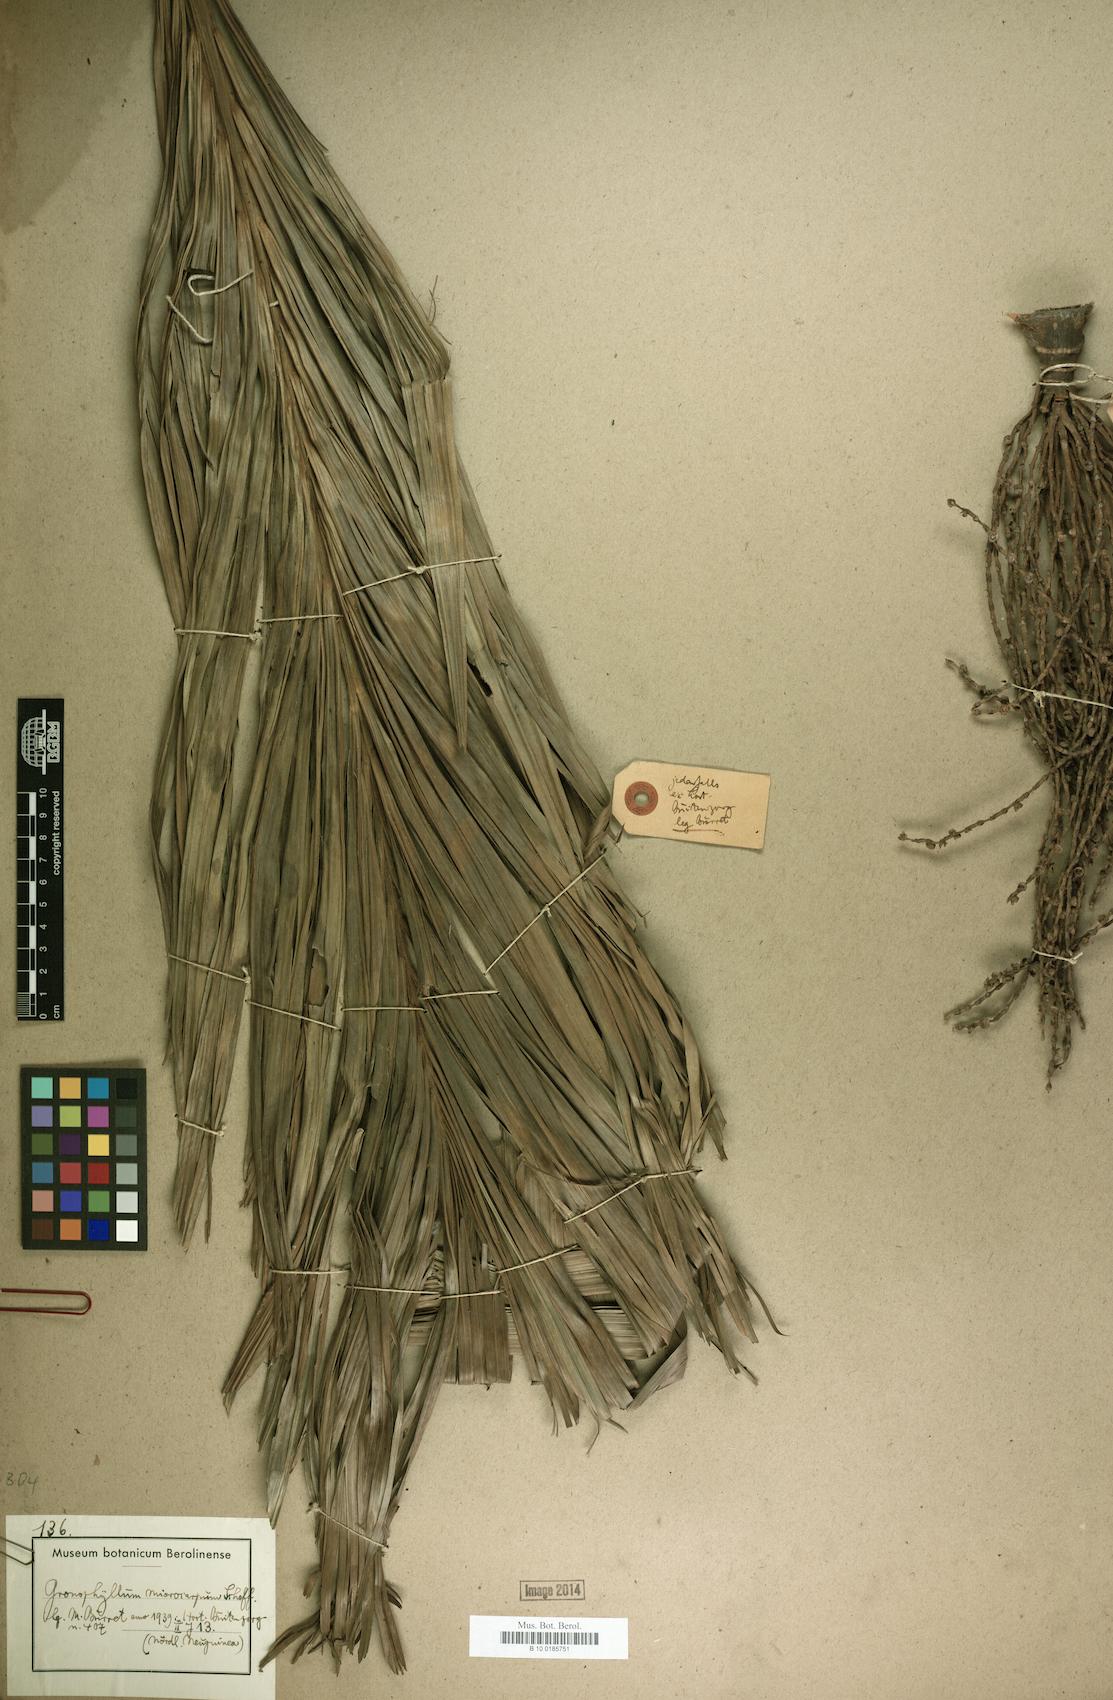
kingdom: Plantae
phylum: Tracheophyta
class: Liliopsida
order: Arecales
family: Arecaceae
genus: Hydriastele
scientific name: Hydriastele microcarpa
